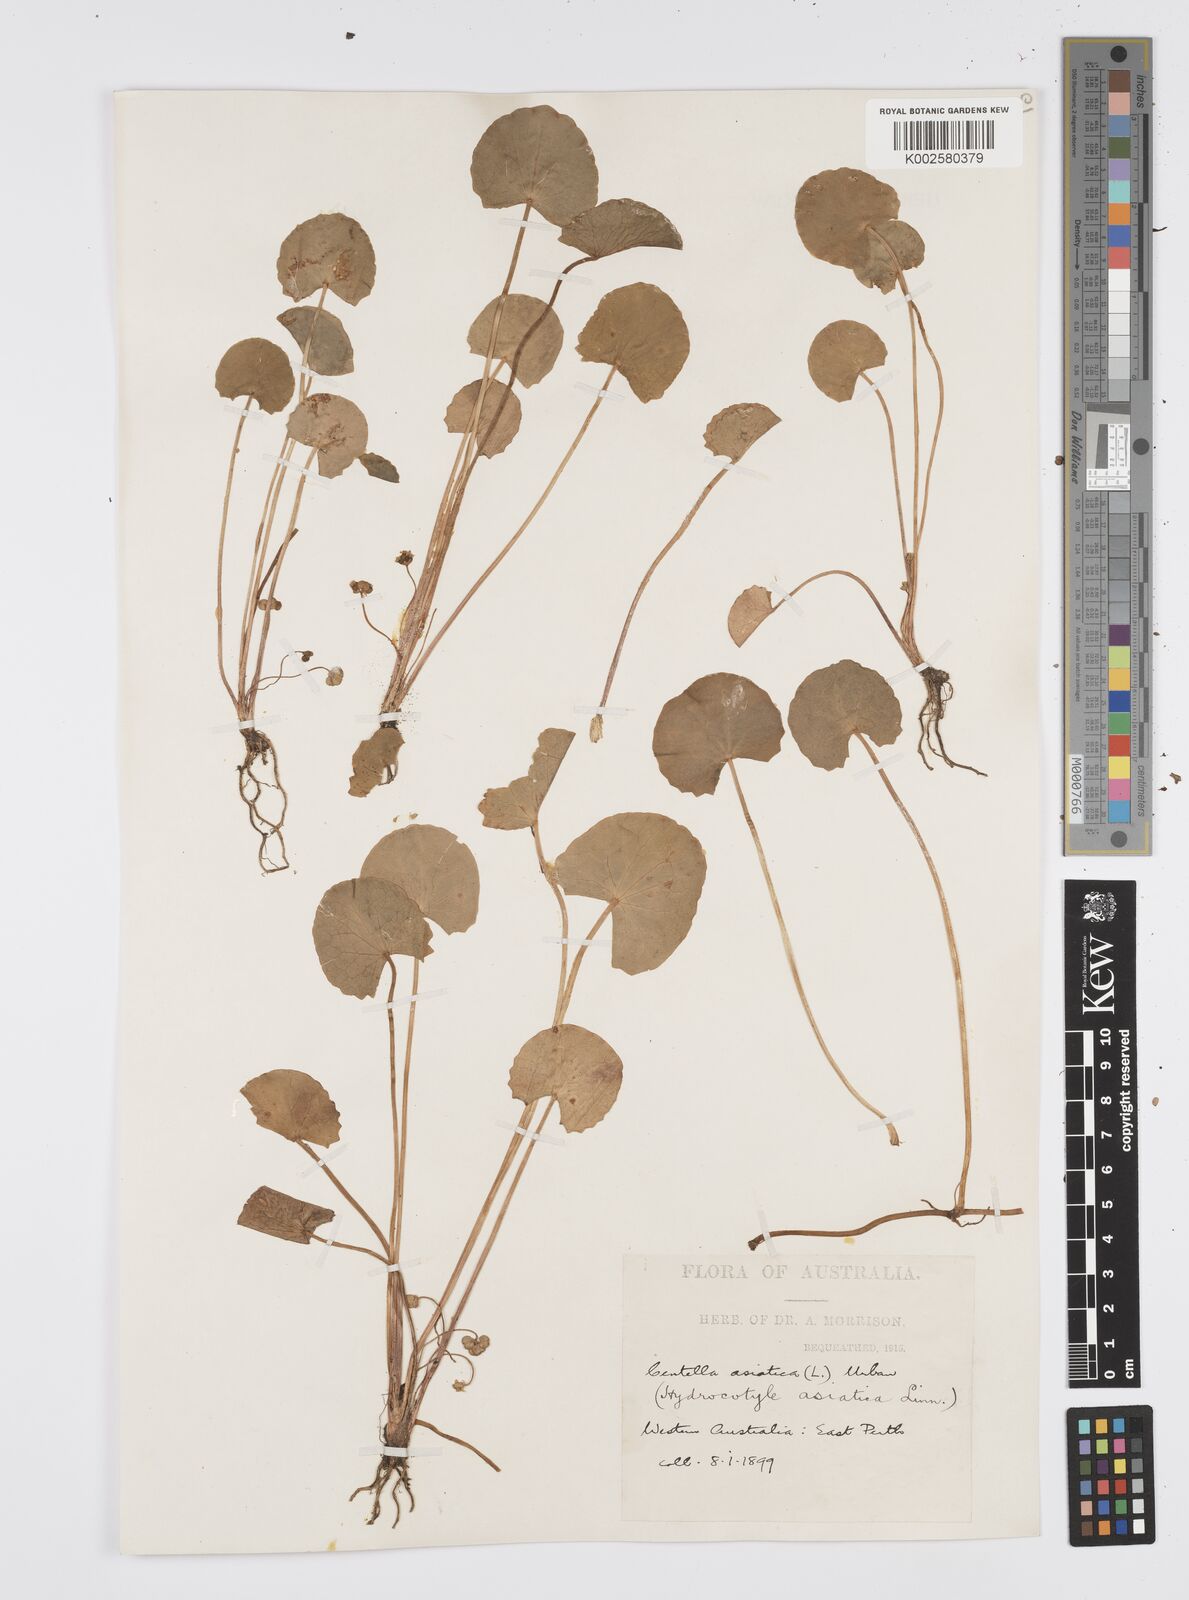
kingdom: Plantae
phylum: Tracheophyta
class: Magnoliopsida
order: Apiales
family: Apiaceae
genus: Centella
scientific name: Centella asiatica
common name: Spadeleaf
